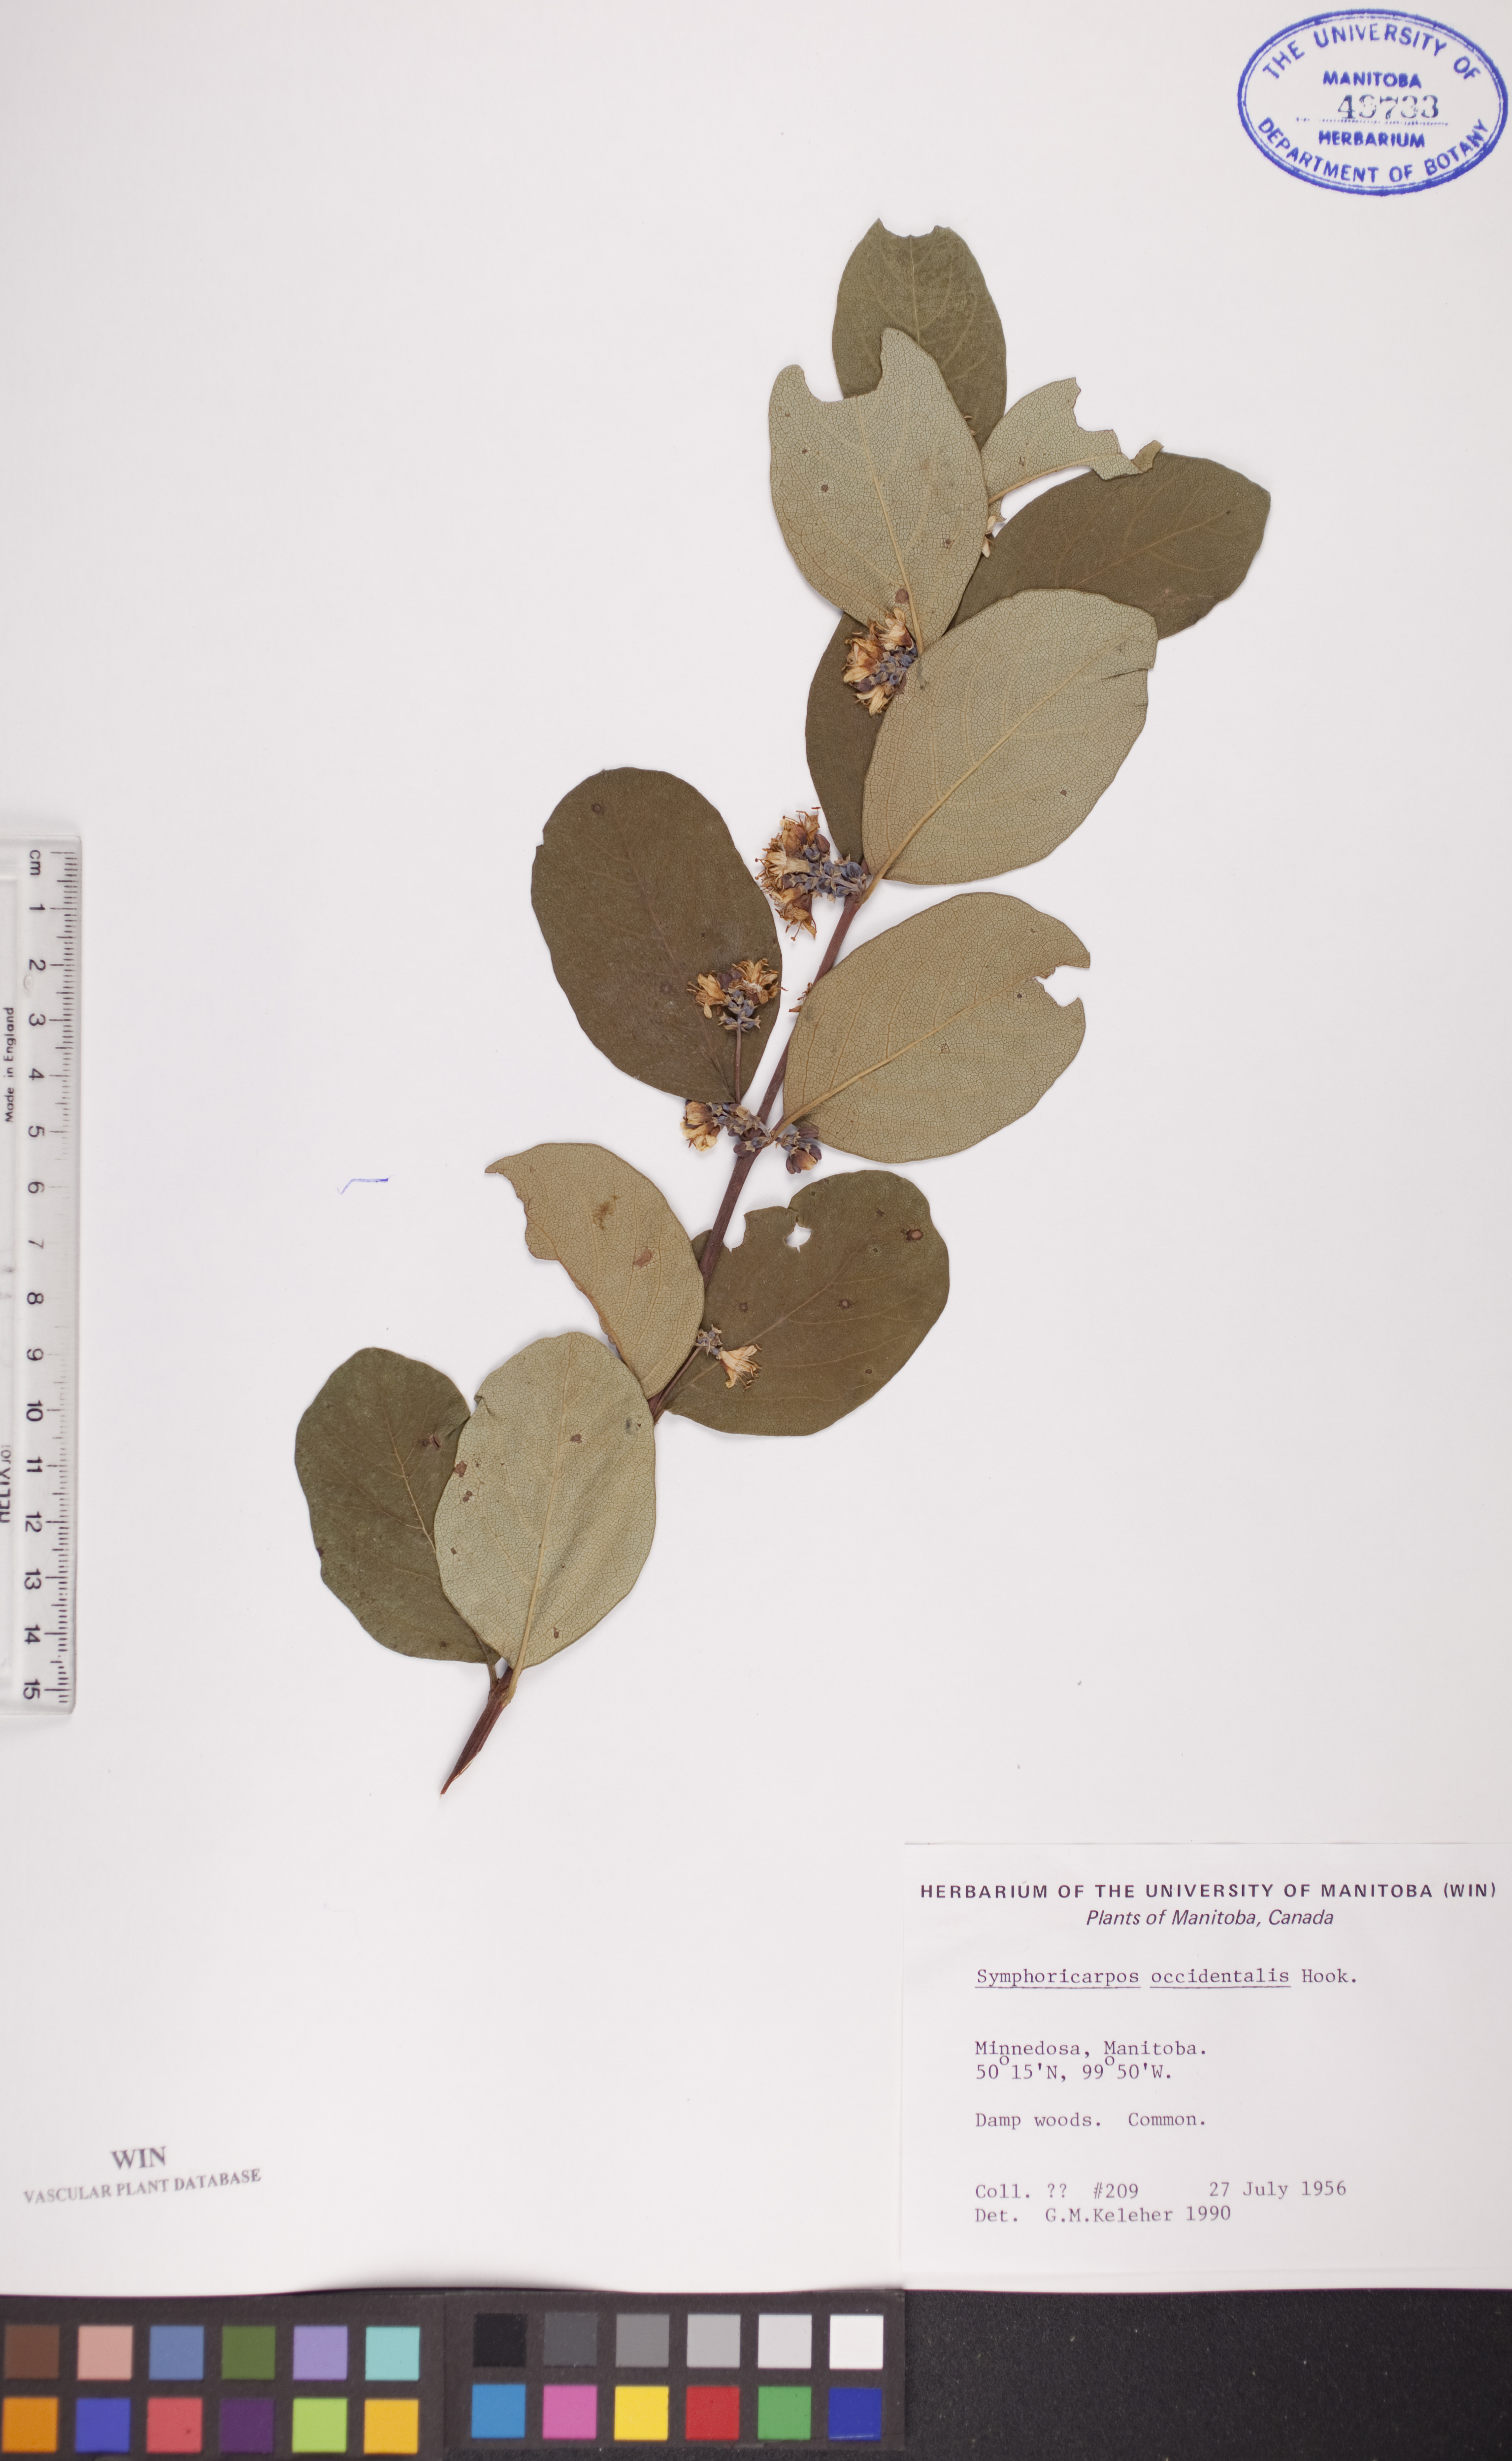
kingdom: Plantae
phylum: Tracheophyta
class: Magnoliopsida
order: Dipsacales
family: Caprifoliaceae
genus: Symphoricarpos
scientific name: Symphoricarpos occidentalis
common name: Wolfberry
